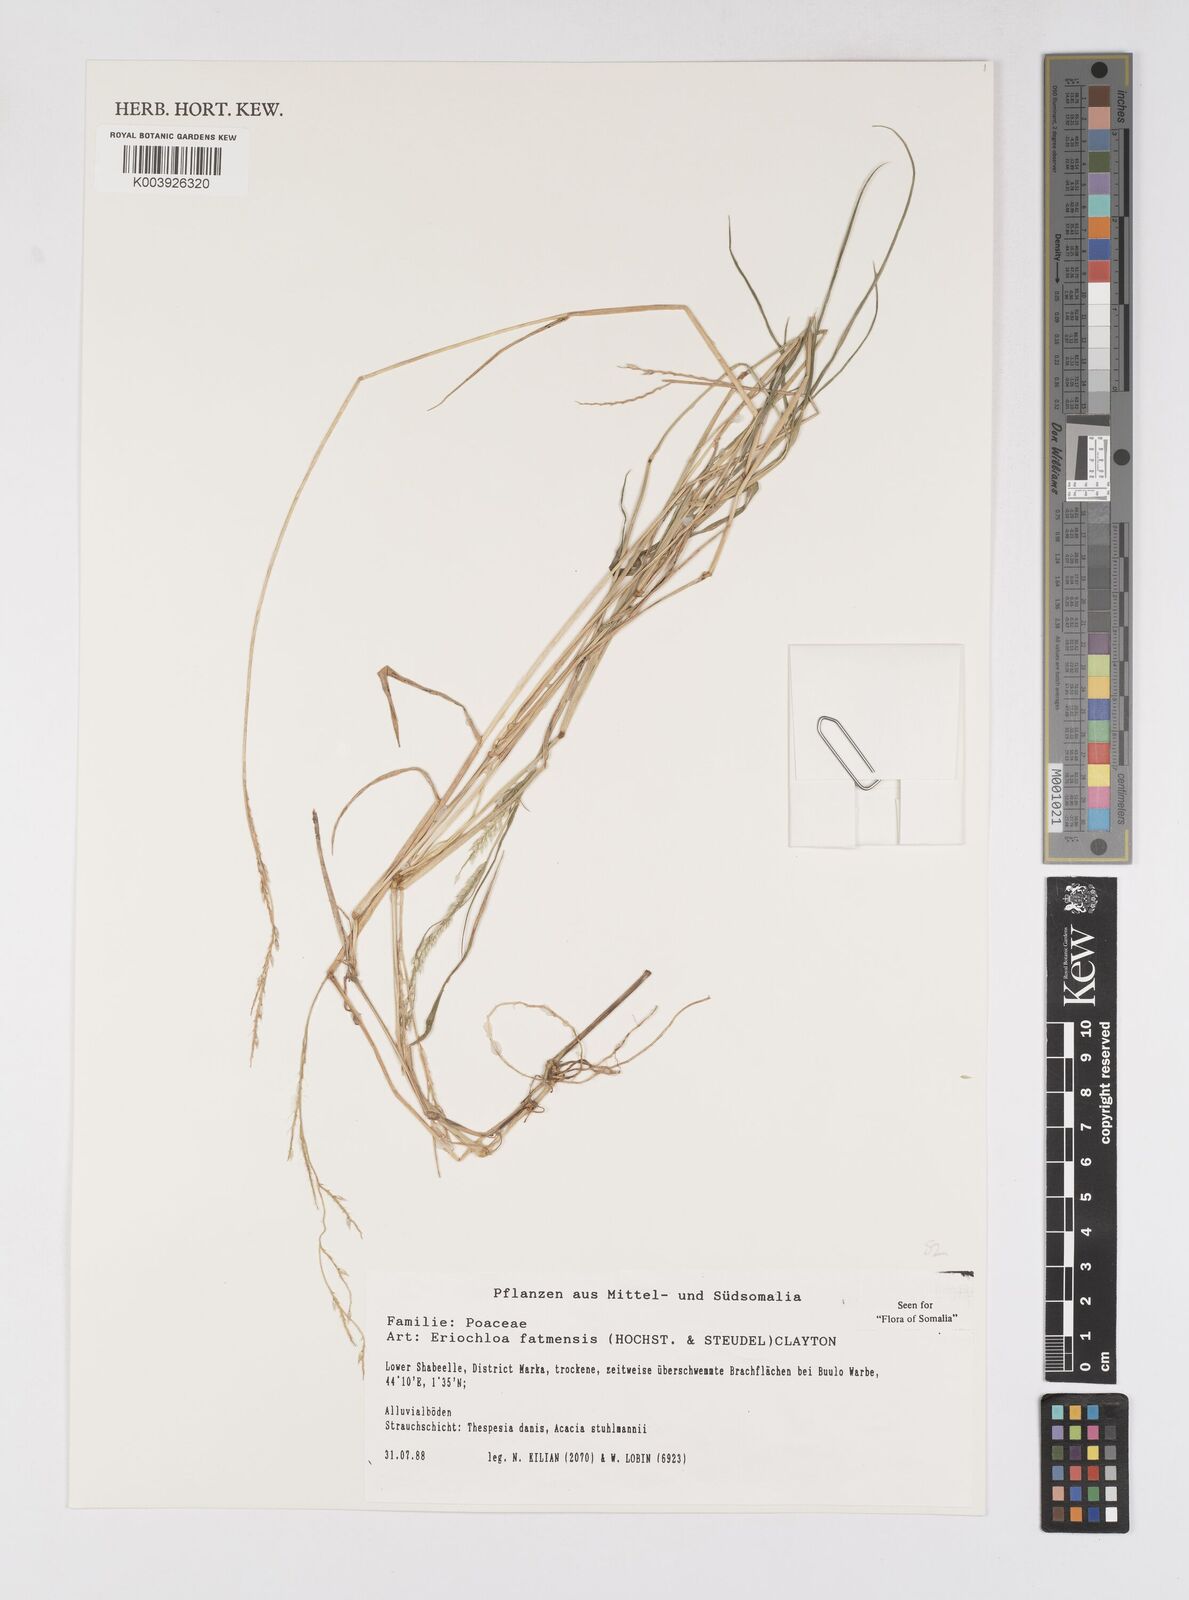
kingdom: Plantae
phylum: Tracheophyta
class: Liliopsida
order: Poales
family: Poaceae
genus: Eriochloa
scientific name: Eriochloa barbatus
